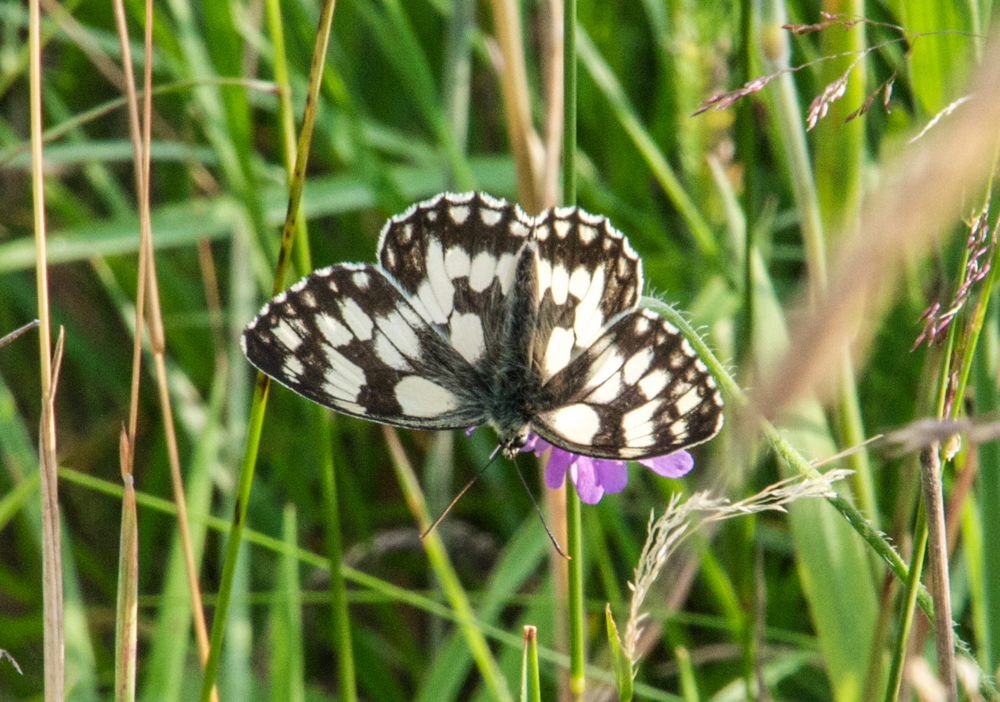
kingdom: Animalia
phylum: Arthropoda
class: Insecta
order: Lepidoptera
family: Nymphalidae
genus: Melanargia
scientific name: Melanargia galathea
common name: Marbled white
